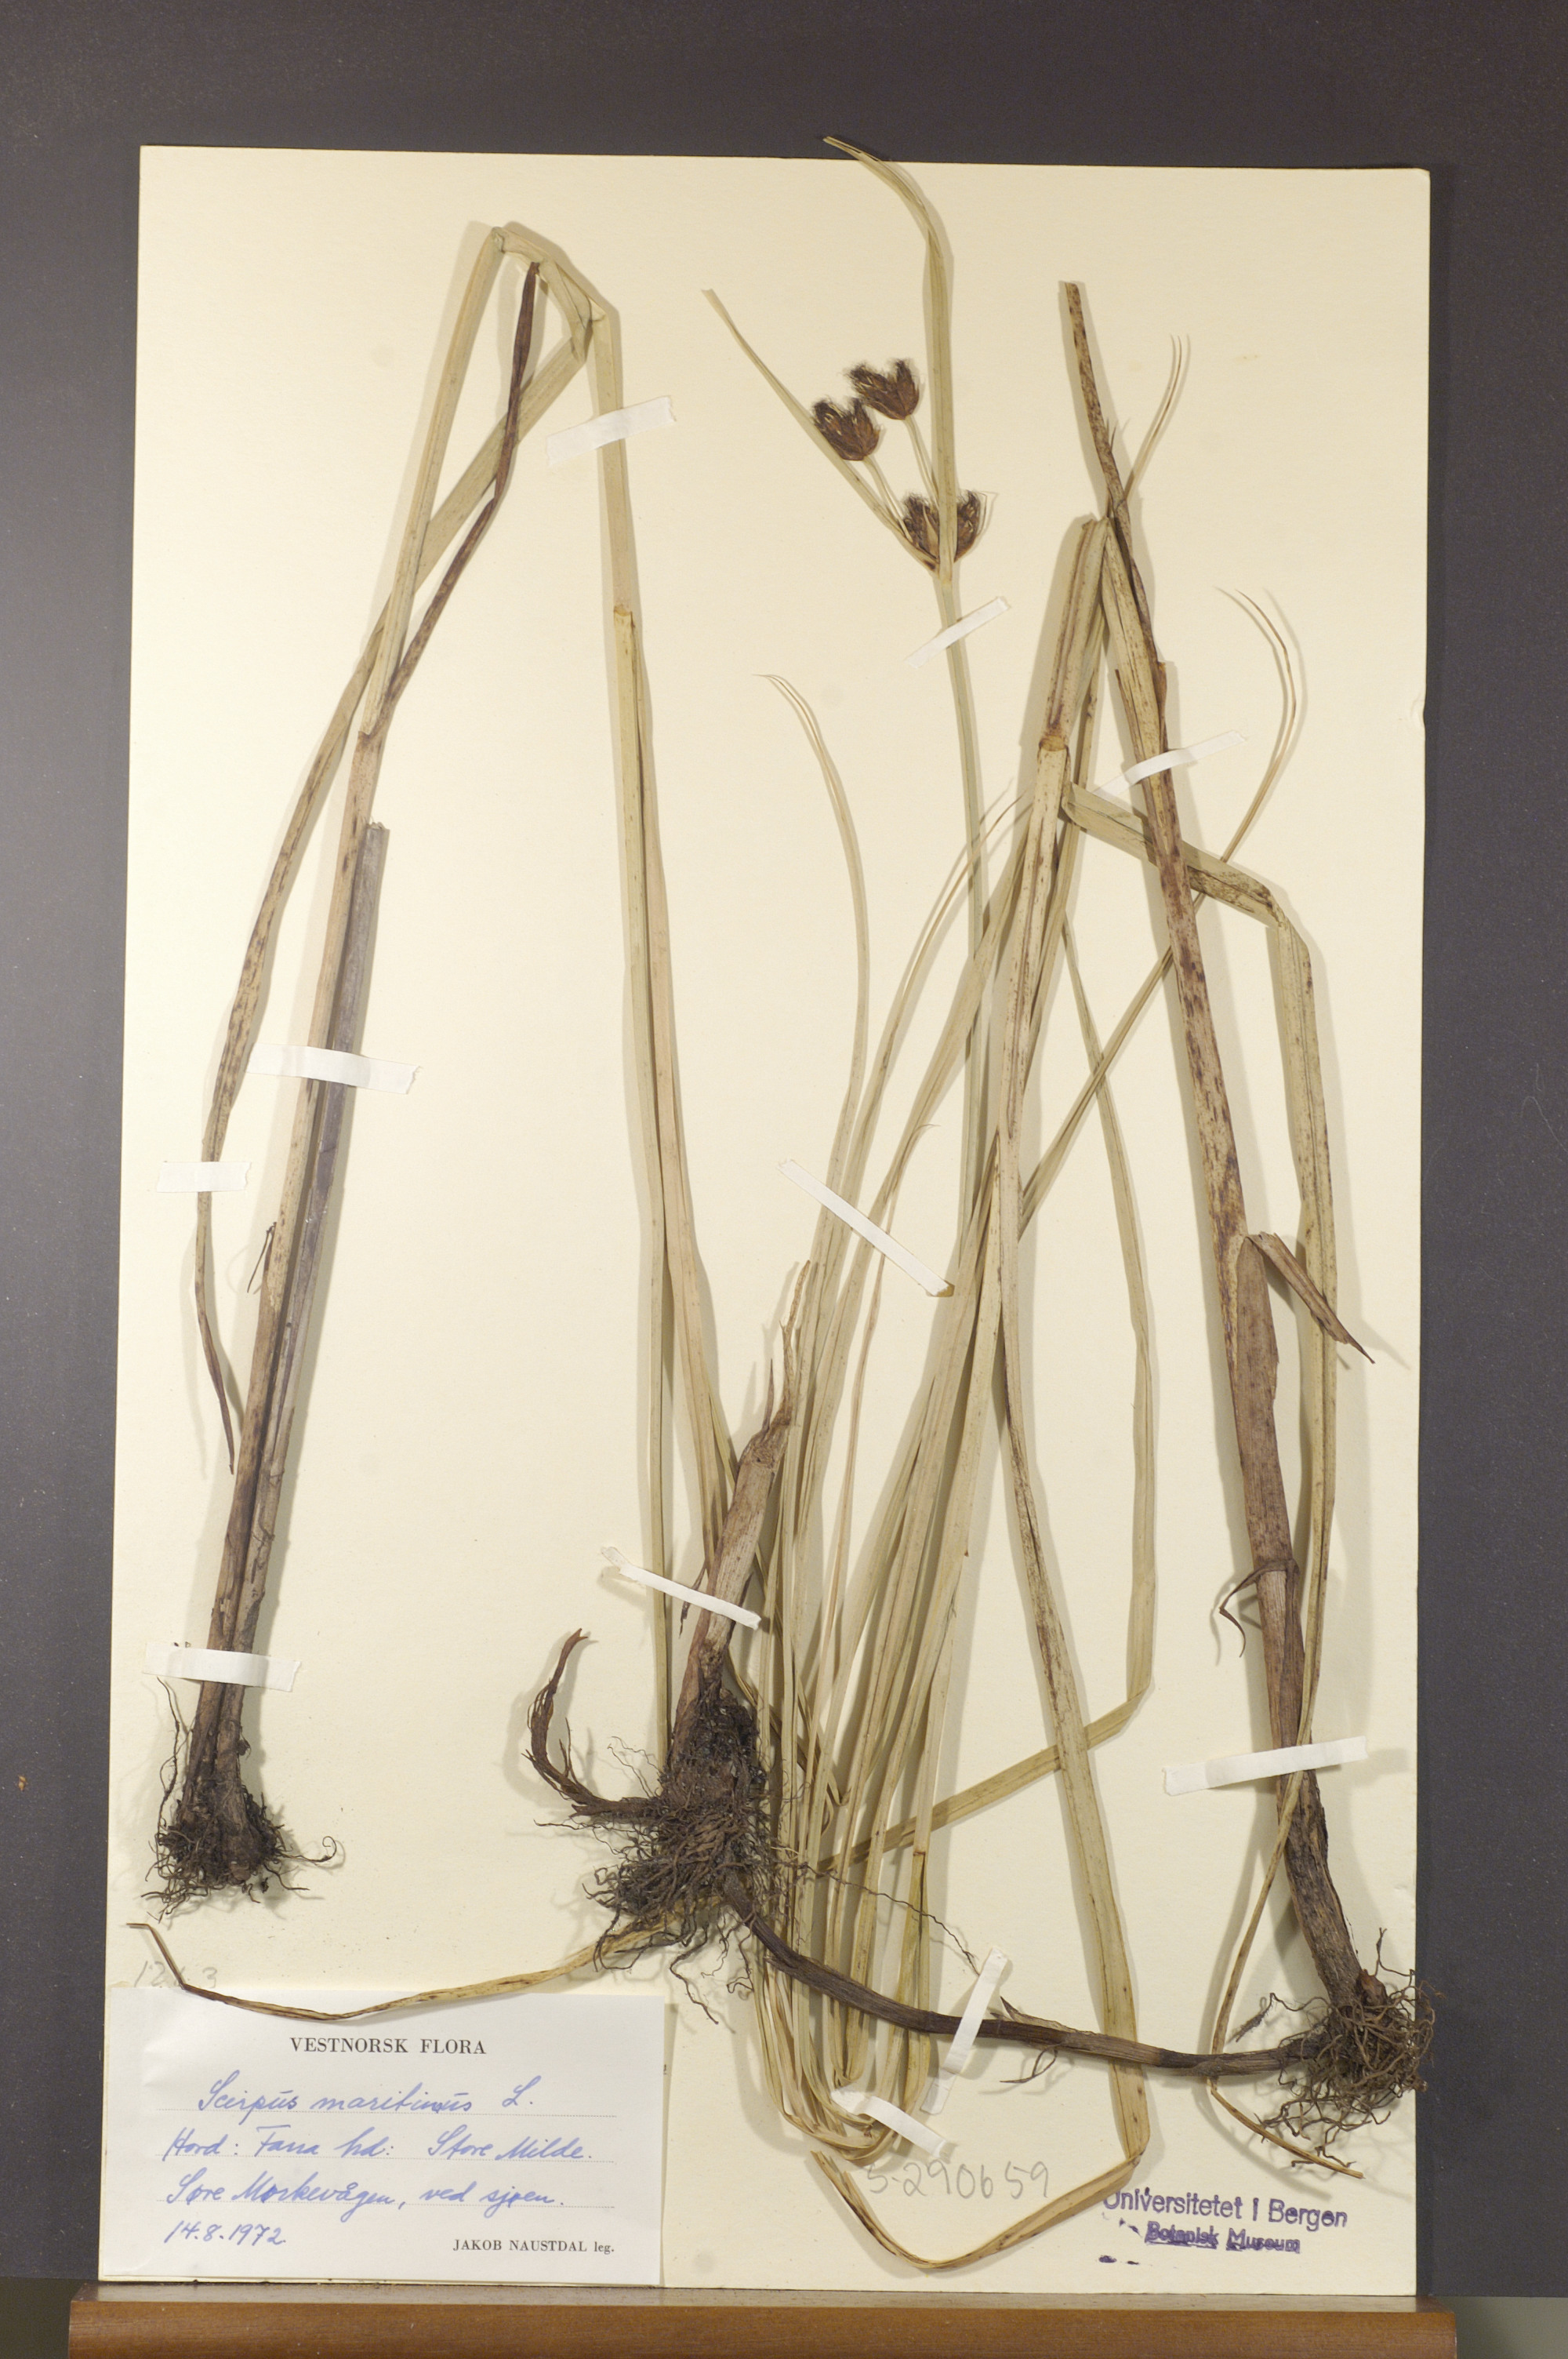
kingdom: Plantae
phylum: Tracheophyta
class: Liliopsida
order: Poales
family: Cyperaceae
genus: Bolboschoenus
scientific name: Bolboschoenus maritimus
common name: Sea club-rush
